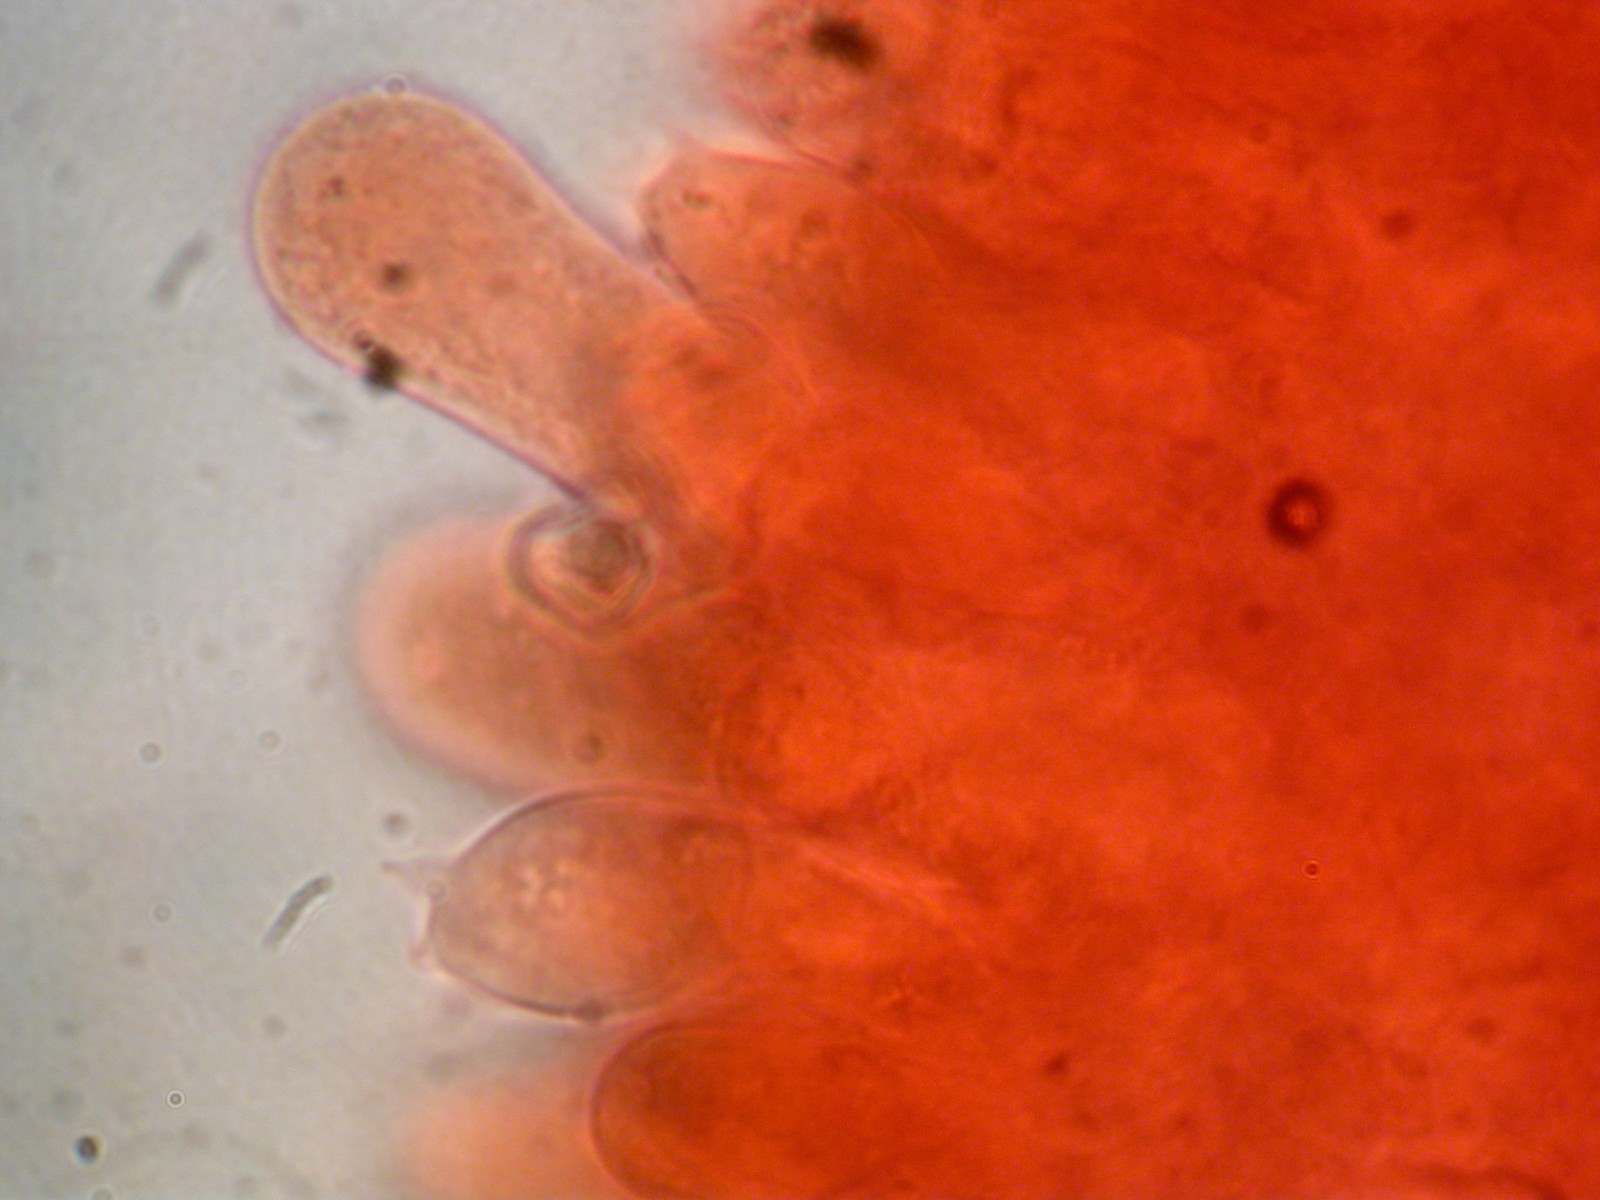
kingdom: Fungi
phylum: Basidiomycota
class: Agaricomycetes
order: Agaricales
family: Entolomataceae
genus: Entoloma
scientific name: Entoloma
